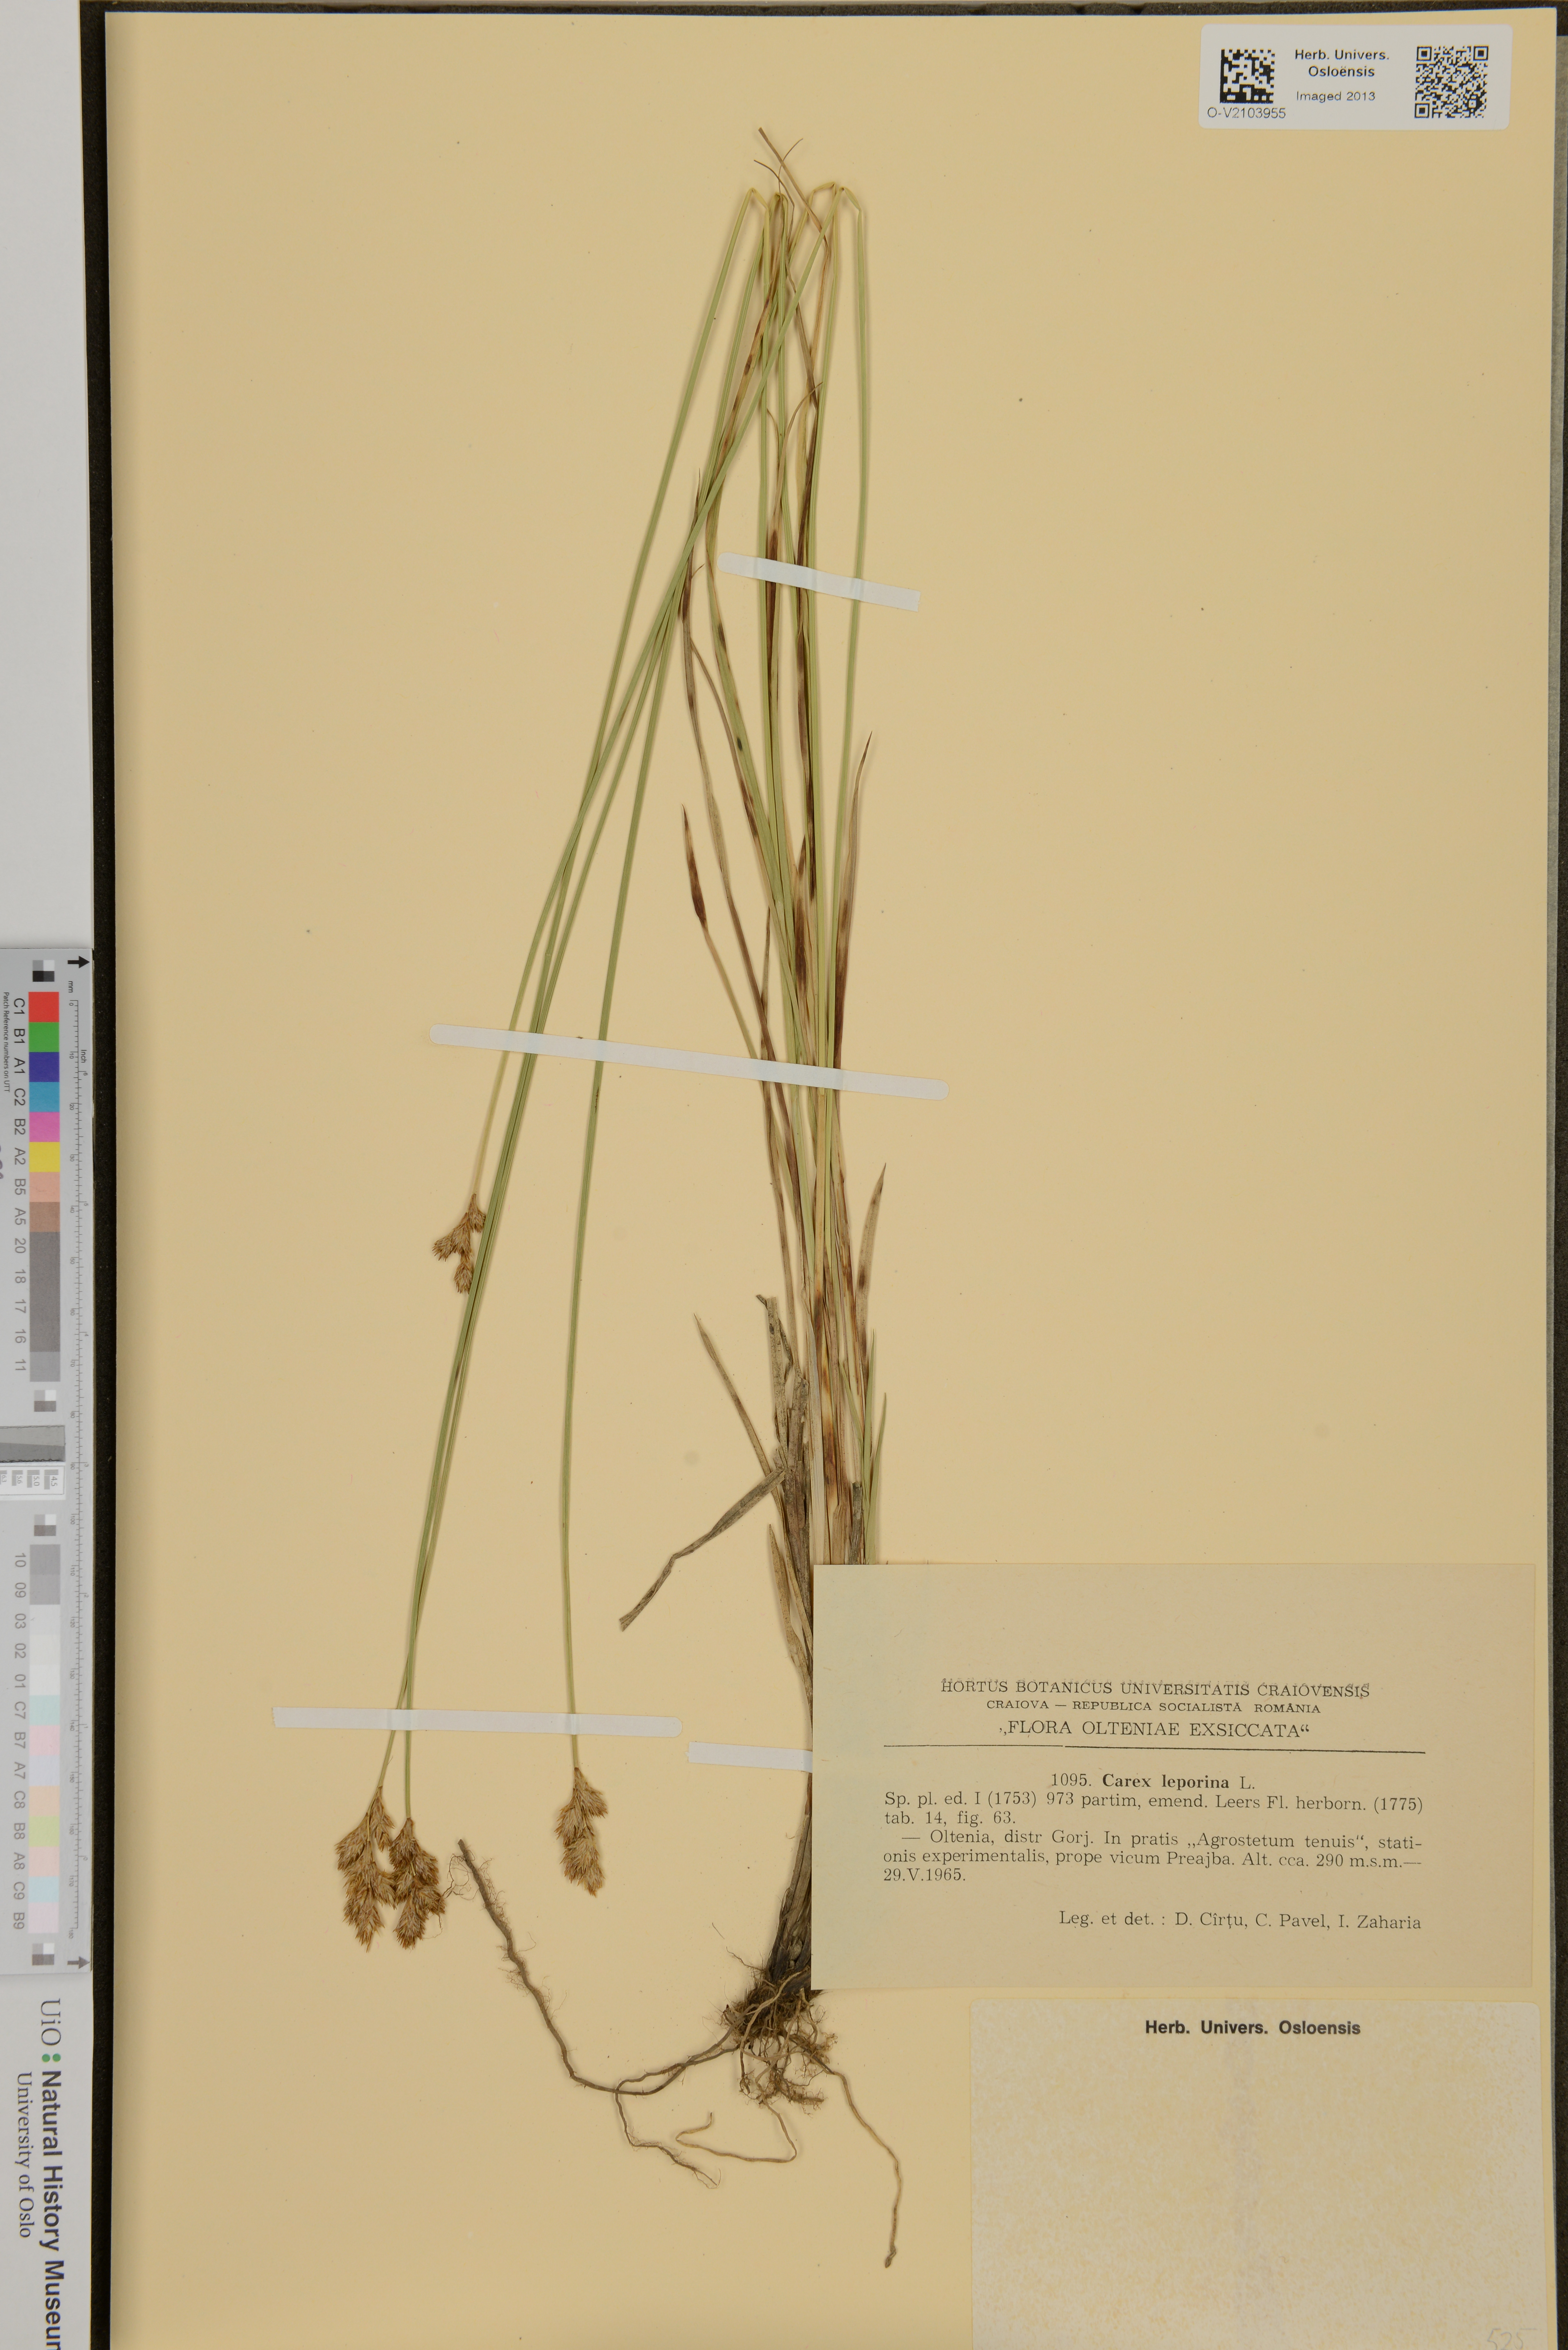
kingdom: Plantae
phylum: Tracheophyta
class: Liliopsida
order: Poales
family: Cyperaceae
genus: Carex
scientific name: Carex leporina
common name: Oval sedge
